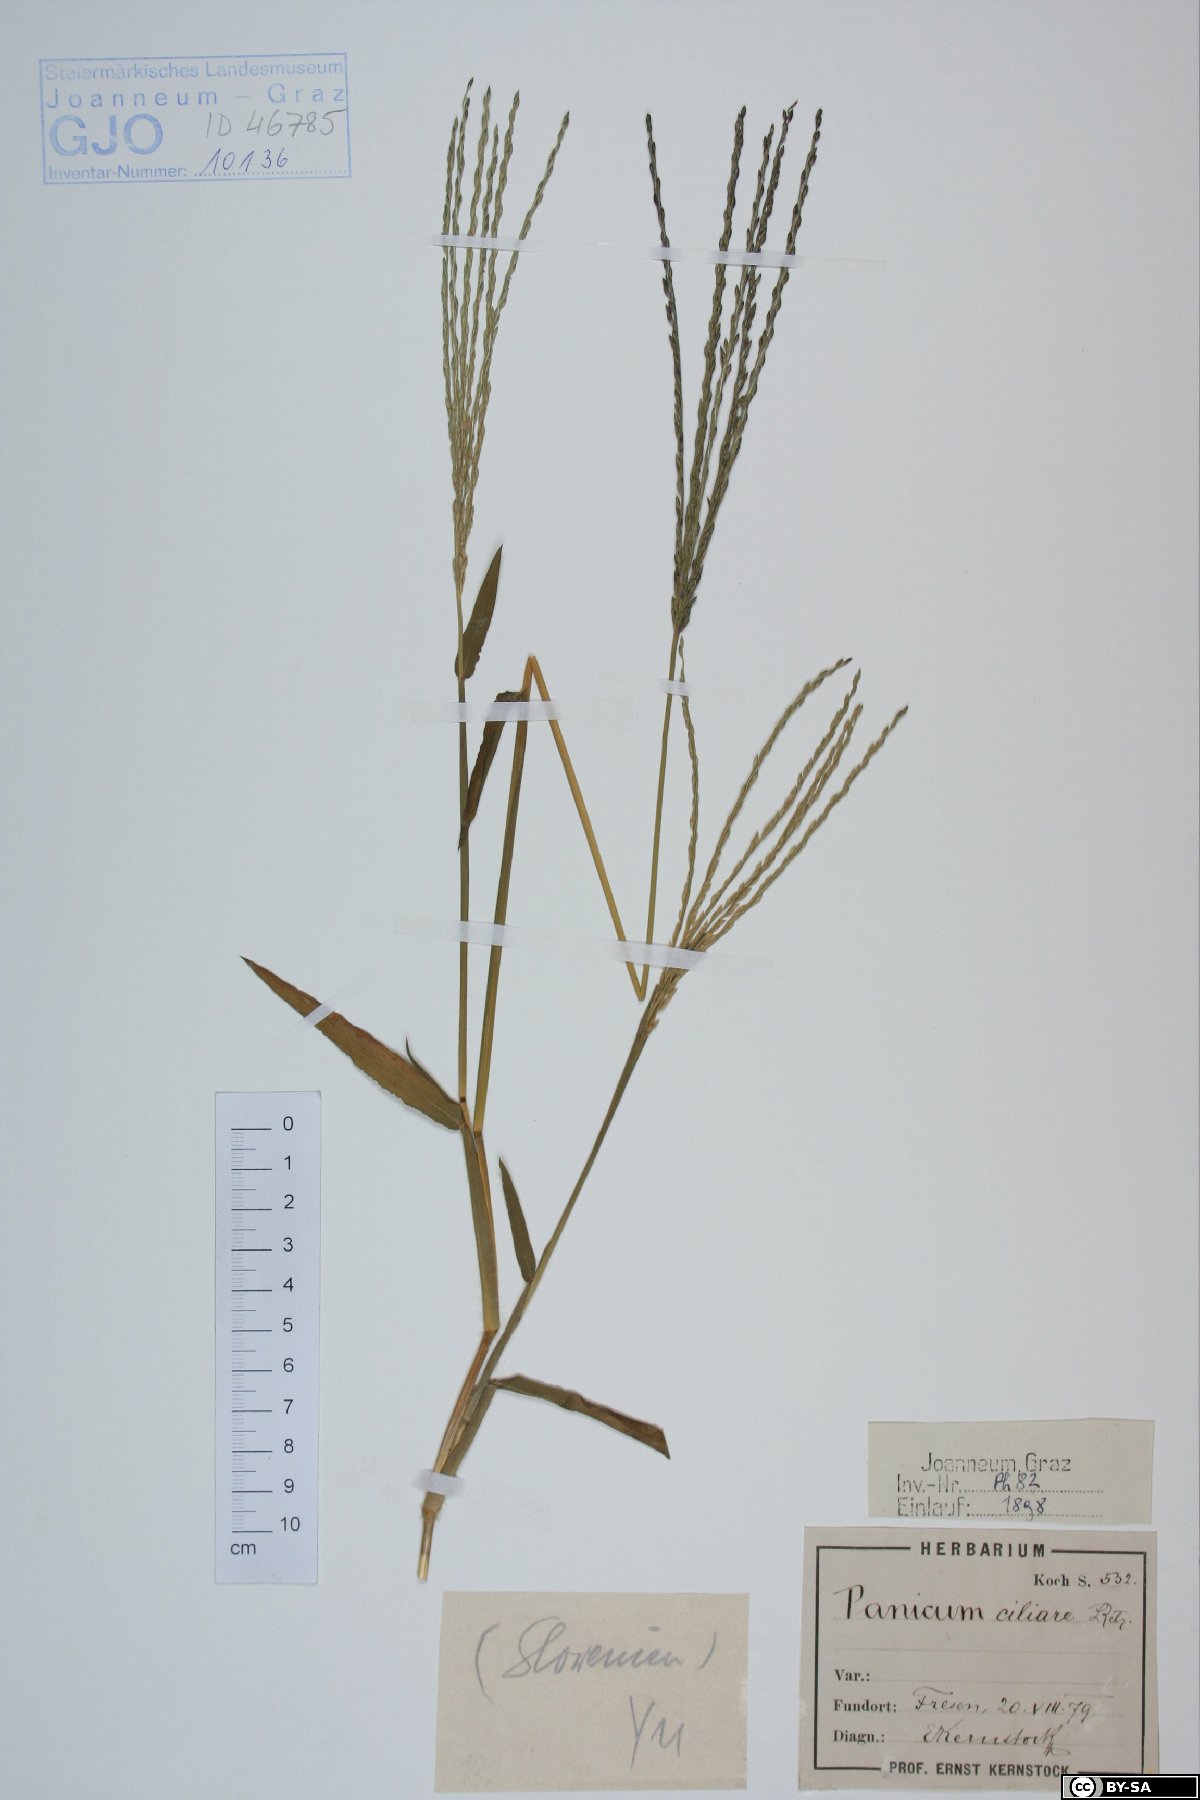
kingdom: Plantae
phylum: Tracheophyta
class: Liliopsida
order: Poales
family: Poaceae
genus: Digitaria
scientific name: Digitaria ciliaris
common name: Tropical finger-grass
